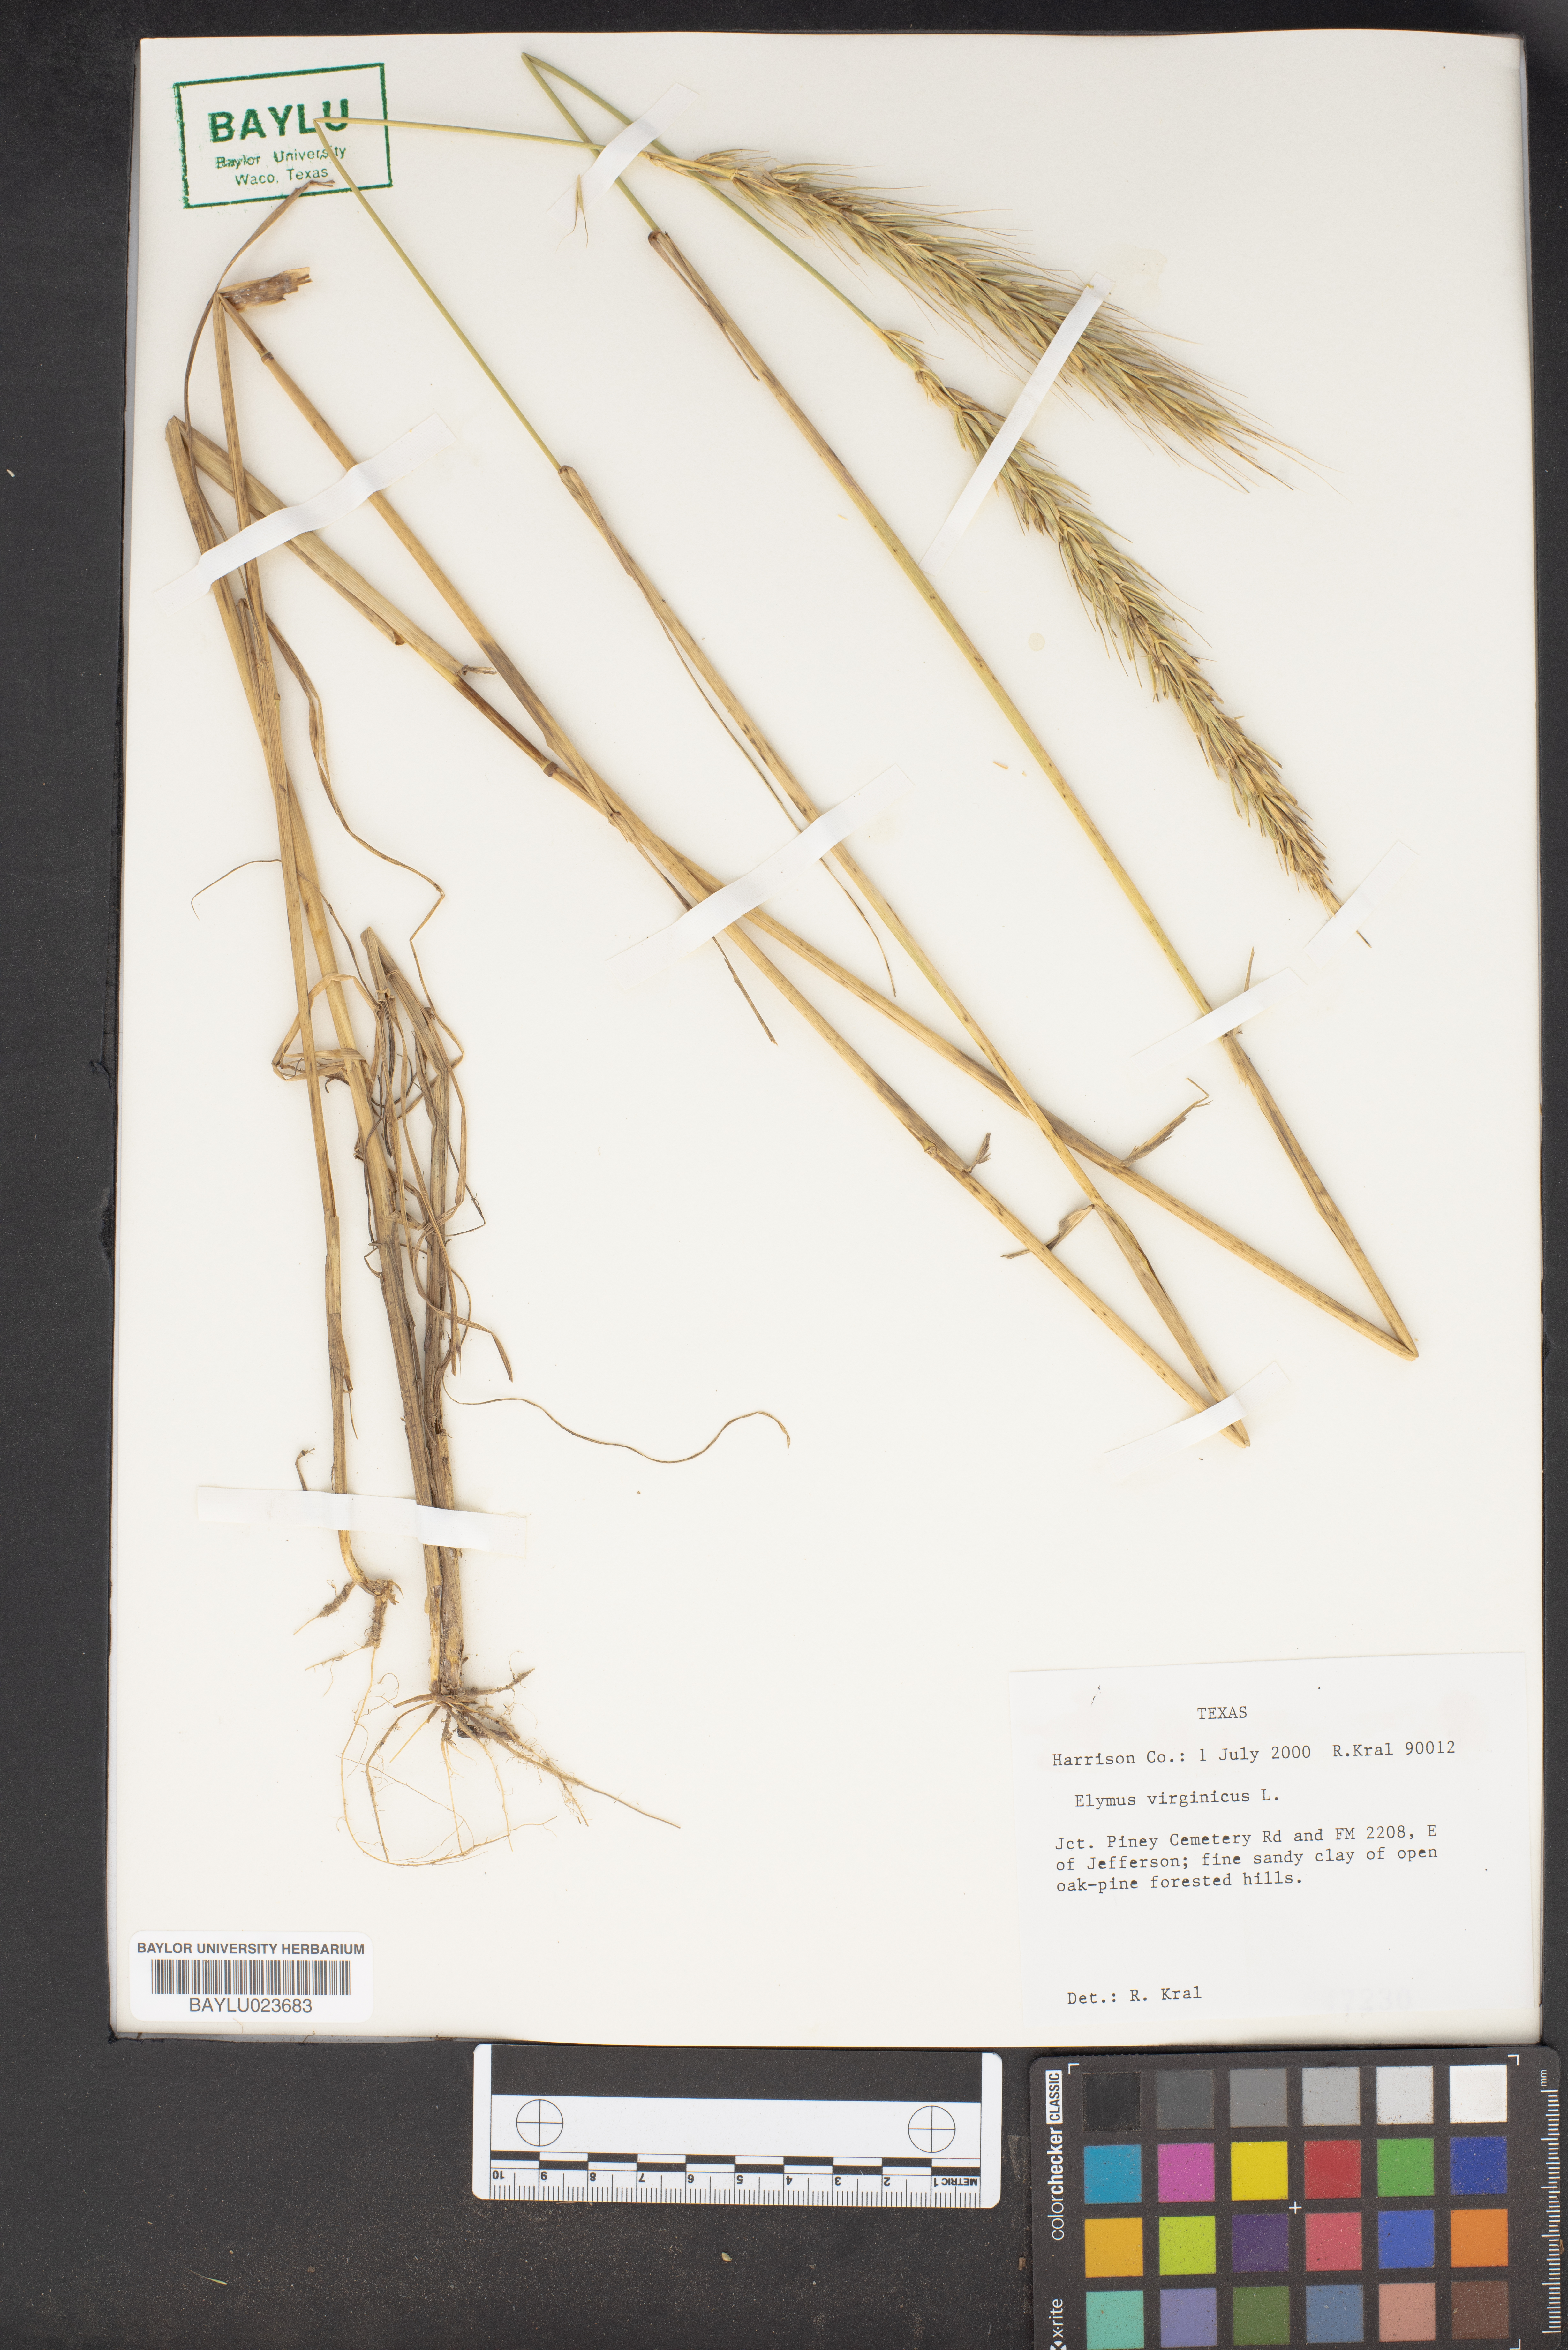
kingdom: Plantae
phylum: Tracheophyta
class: Liliopsida
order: Poales
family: Poaceae
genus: Elymus
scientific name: Elymus virginicus
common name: Common eastern wildrye
